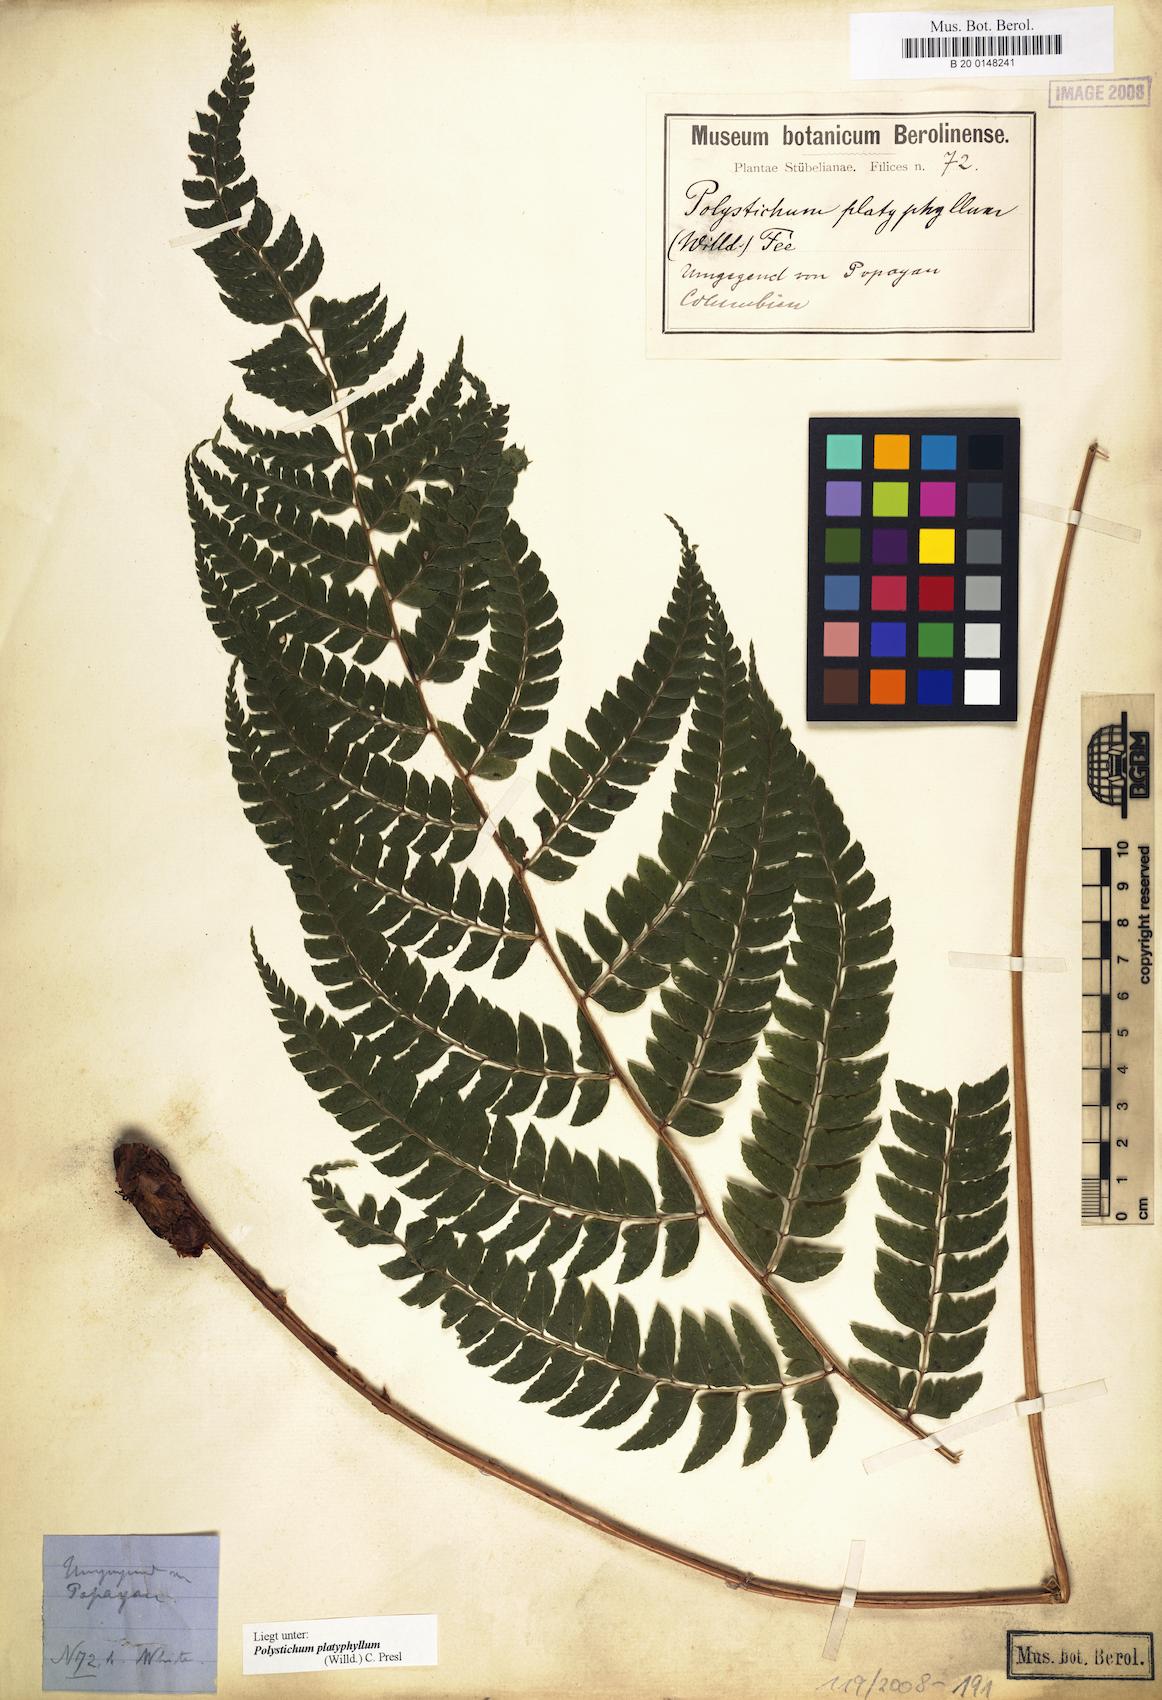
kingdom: Plantae
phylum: Tracheophyta
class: Polypodiopsida
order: Polypodiales
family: Dryopteridaceae
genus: Polystichum
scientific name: Polystichum platyphyllum
